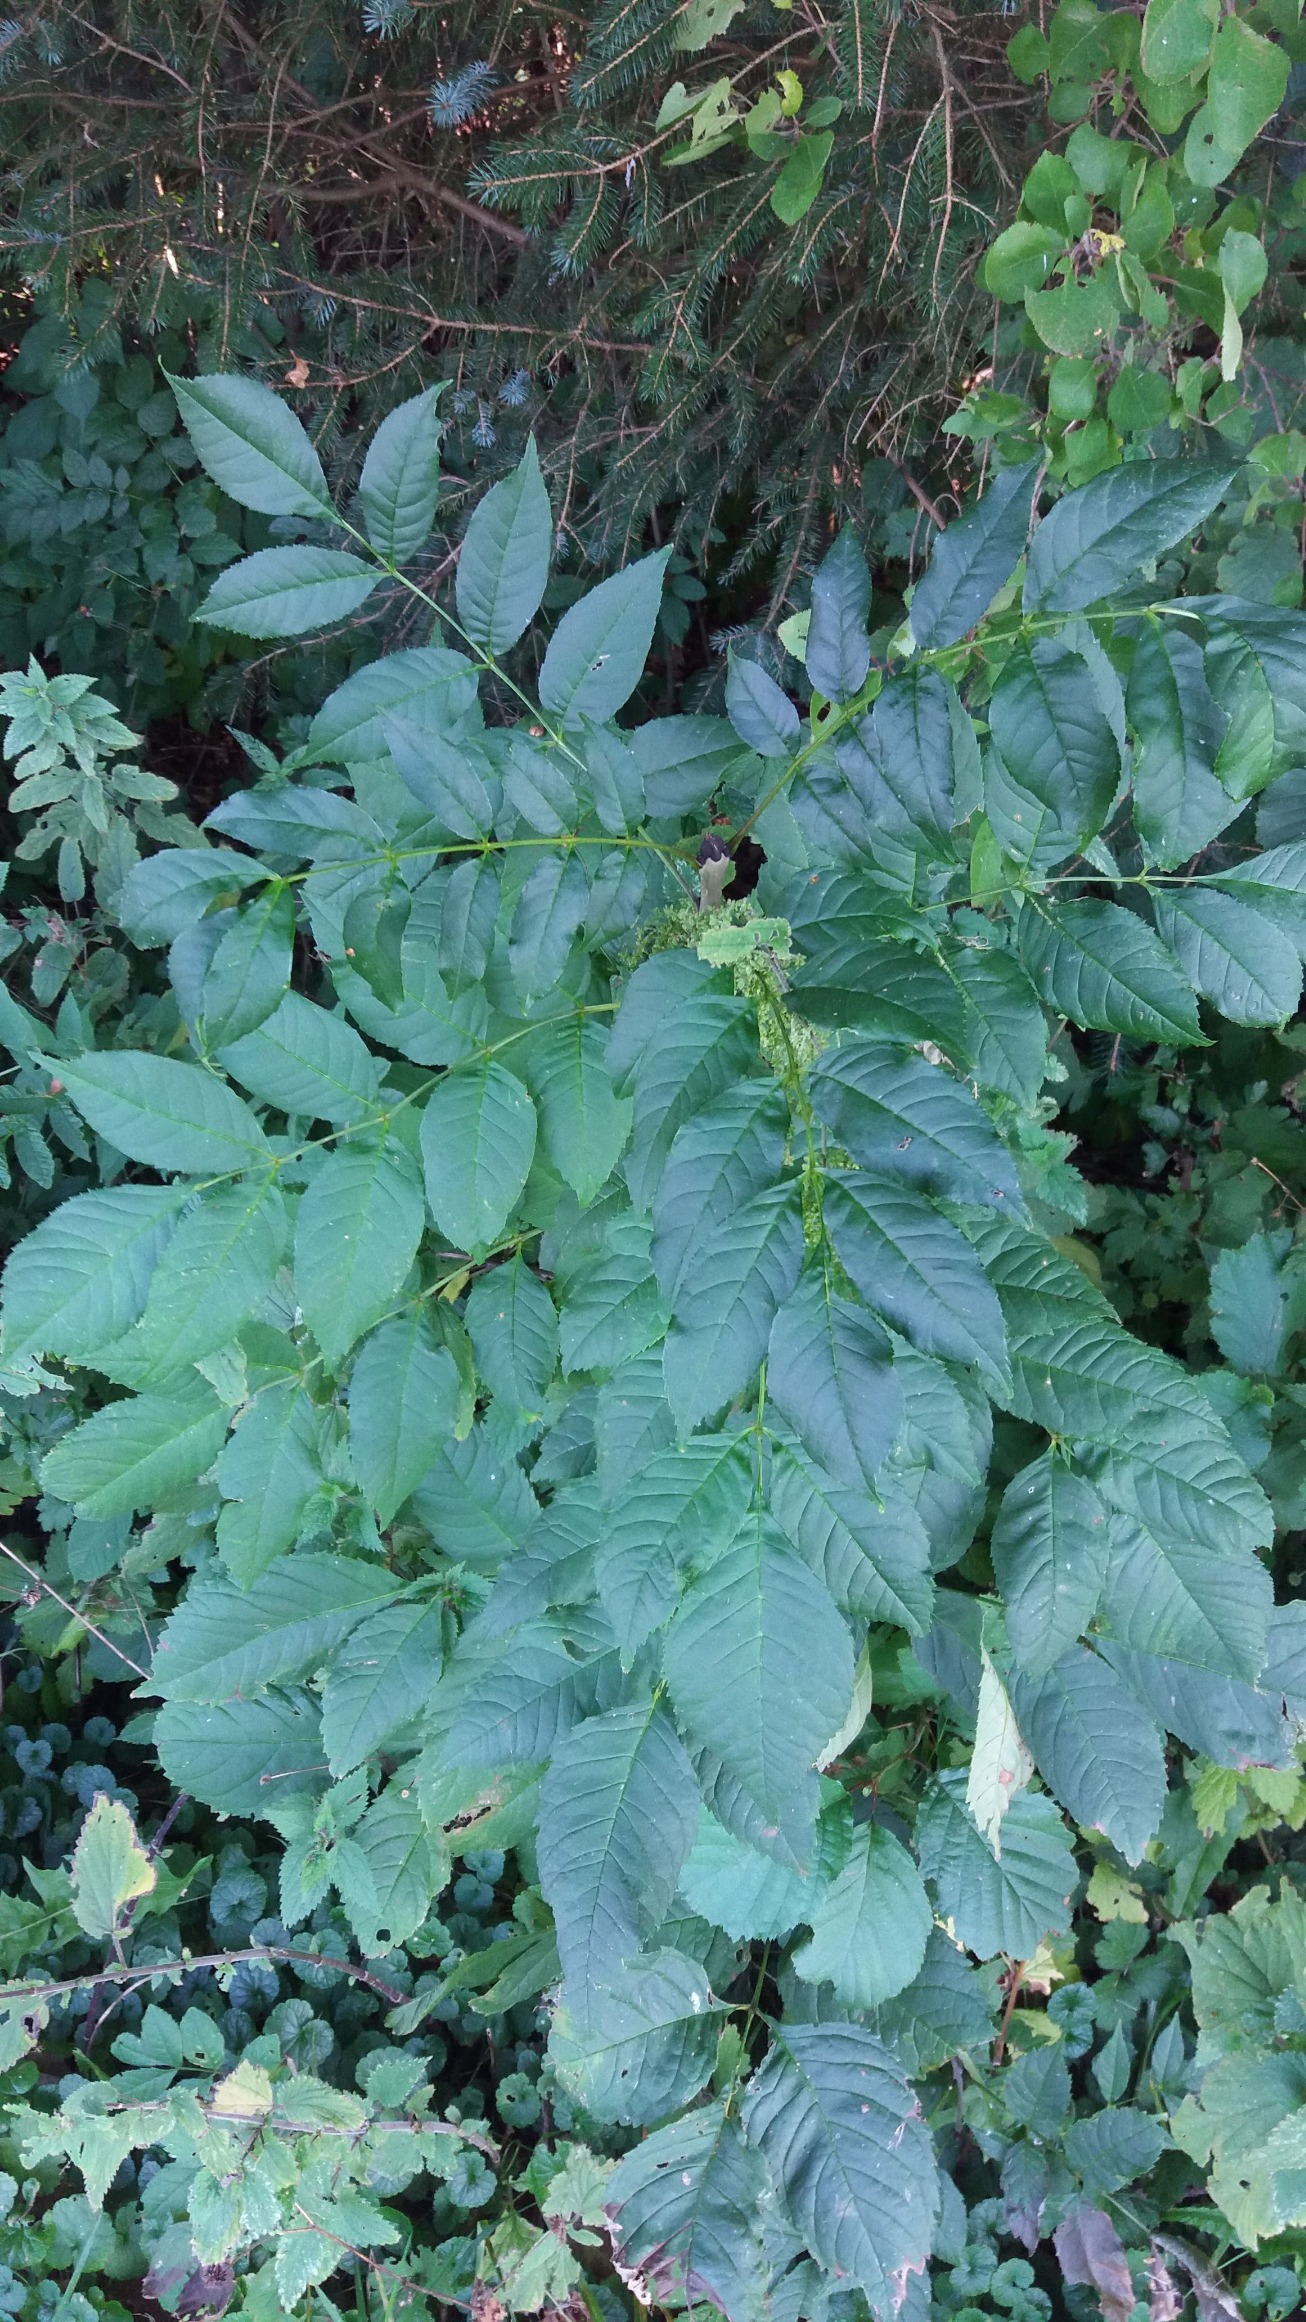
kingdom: Plantae
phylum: Tracheophyta
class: Magnoliopsida
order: Lamiales
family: Oleaceae
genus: Fraxinus
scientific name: Fraxinus excelsior
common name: Ask
